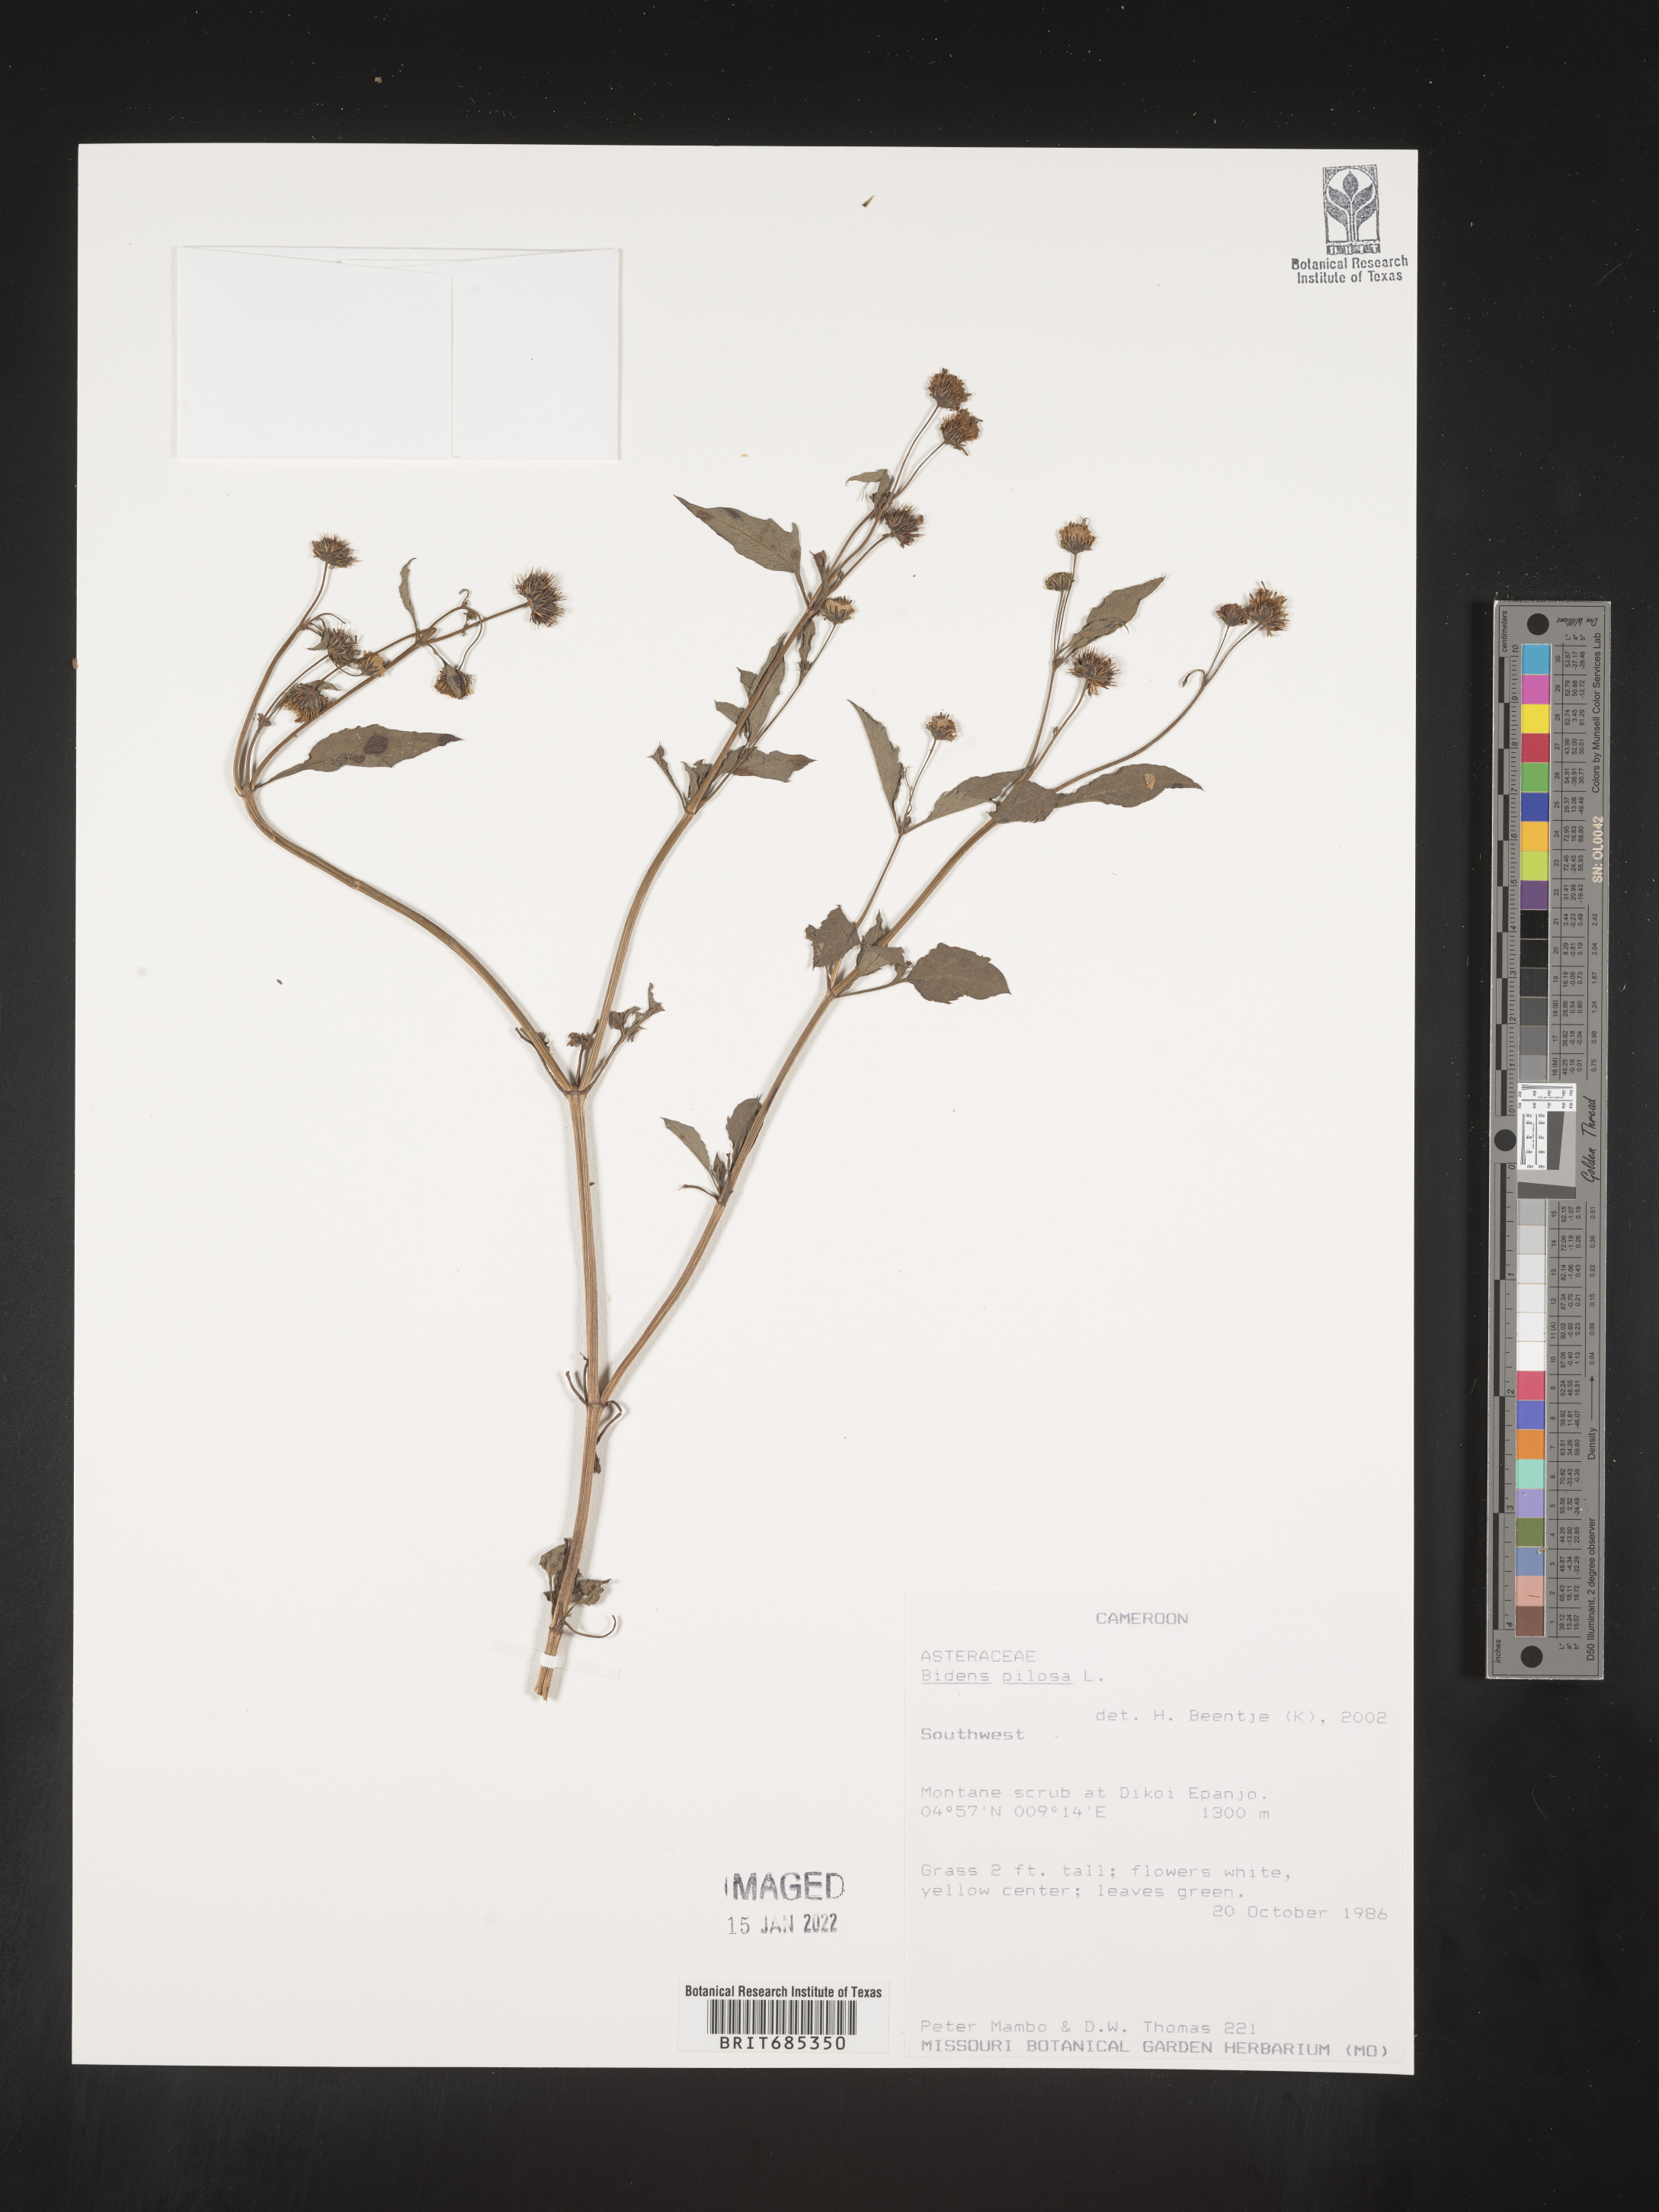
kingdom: Plantae
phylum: Tracheophyta
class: Magnoliopsida
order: Asterales
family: Asteraceae
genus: Bidens
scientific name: Bidens
